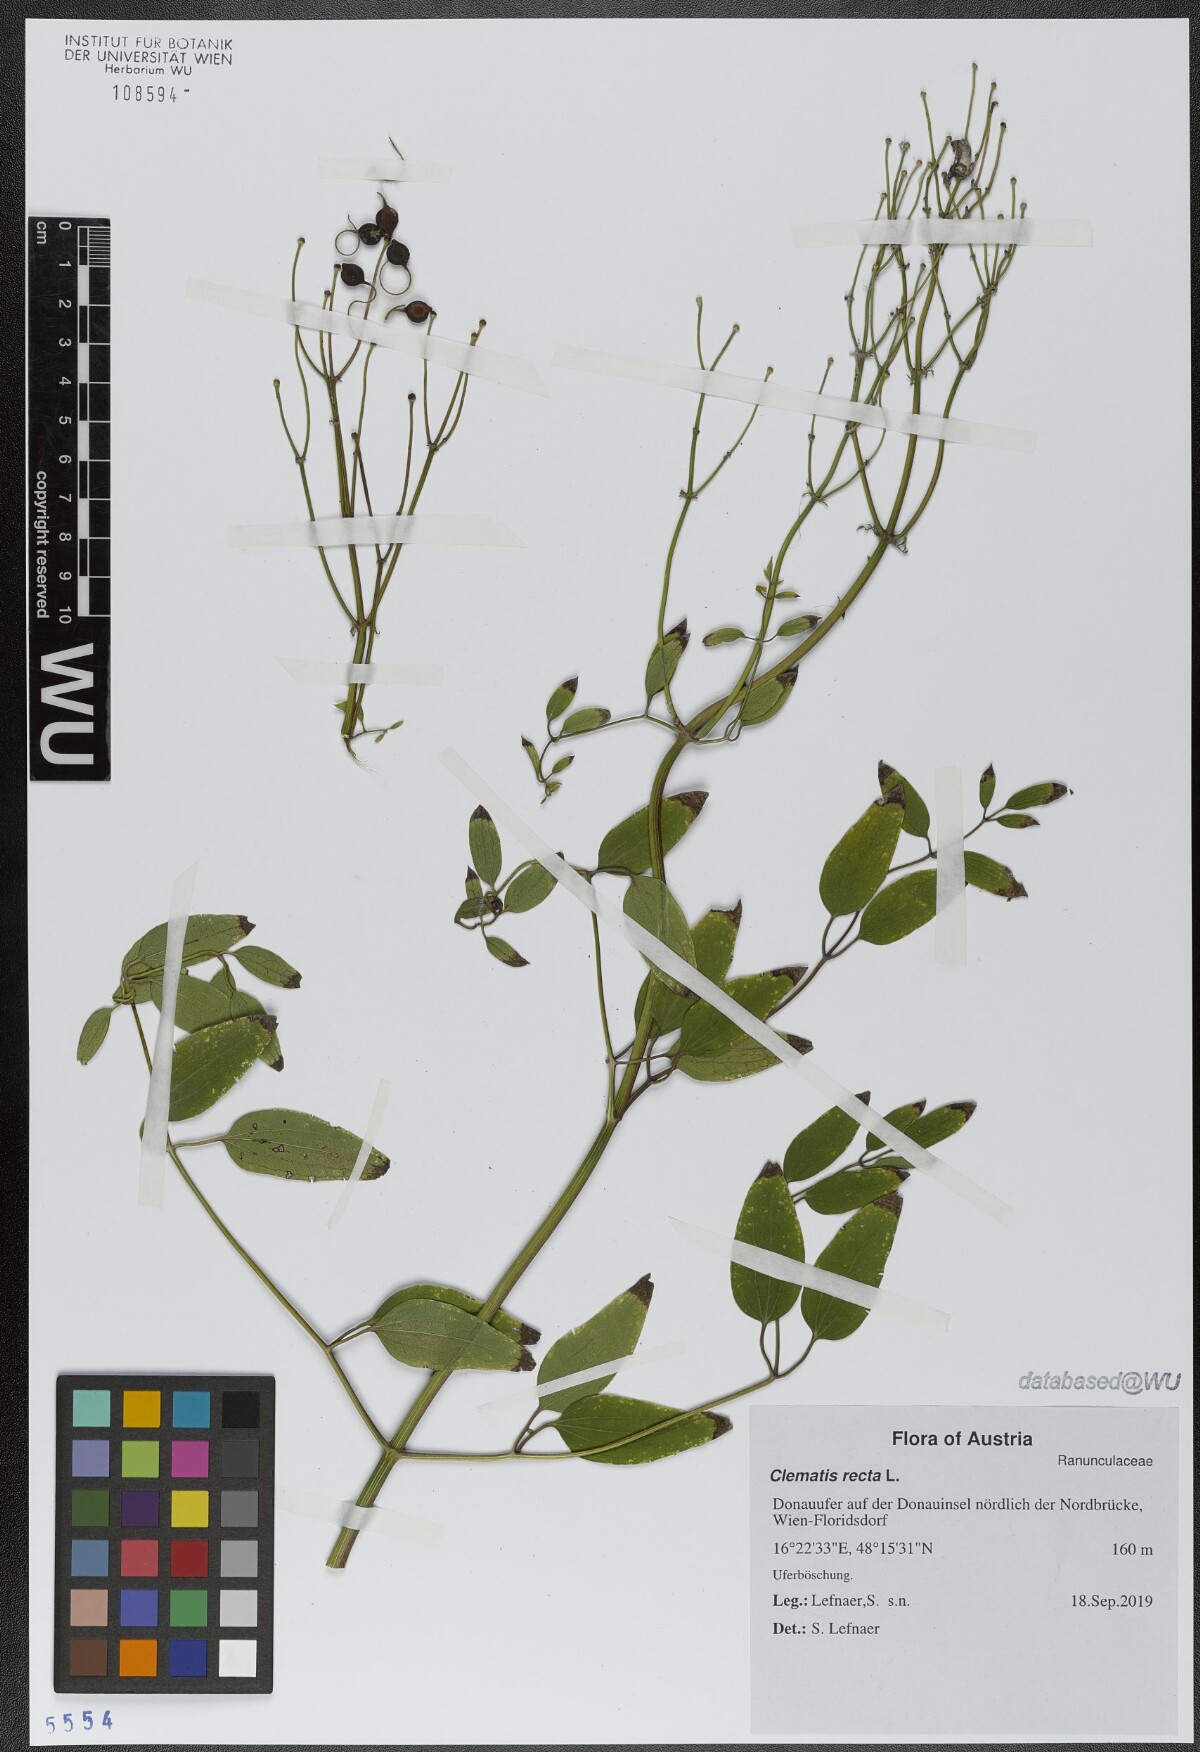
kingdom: Plantae
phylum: Tracheophyta
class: Magnoliopsida
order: Ranunculales
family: Ranunculaceae
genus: Clematis
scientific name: Clematis recta
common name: Ground clematis
